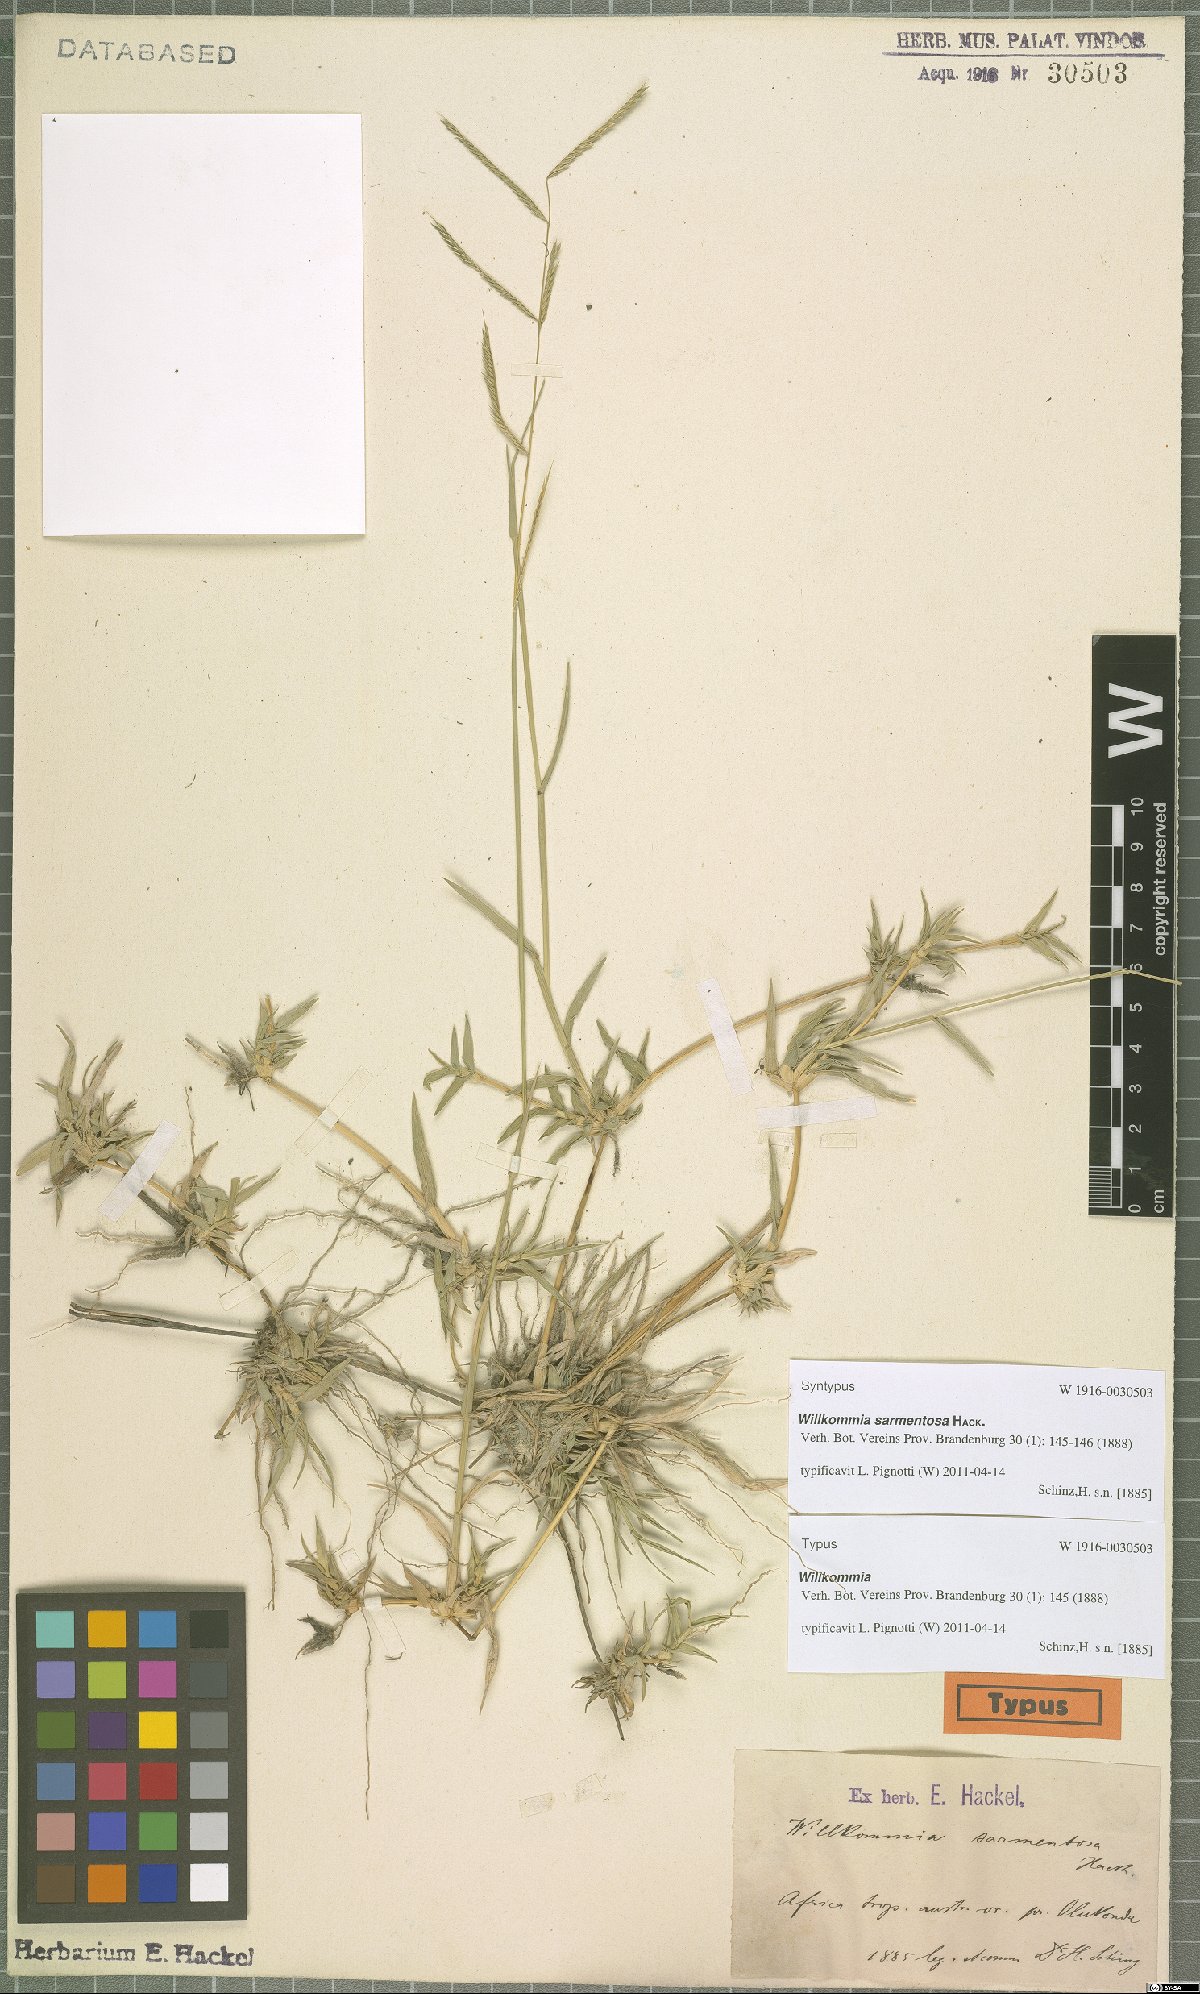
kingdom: Plantae
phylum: Tracheophyta
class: Liliopsida
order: Poales
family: Poaceae
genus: Willkommia
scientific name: Willkommia sarmentosa
